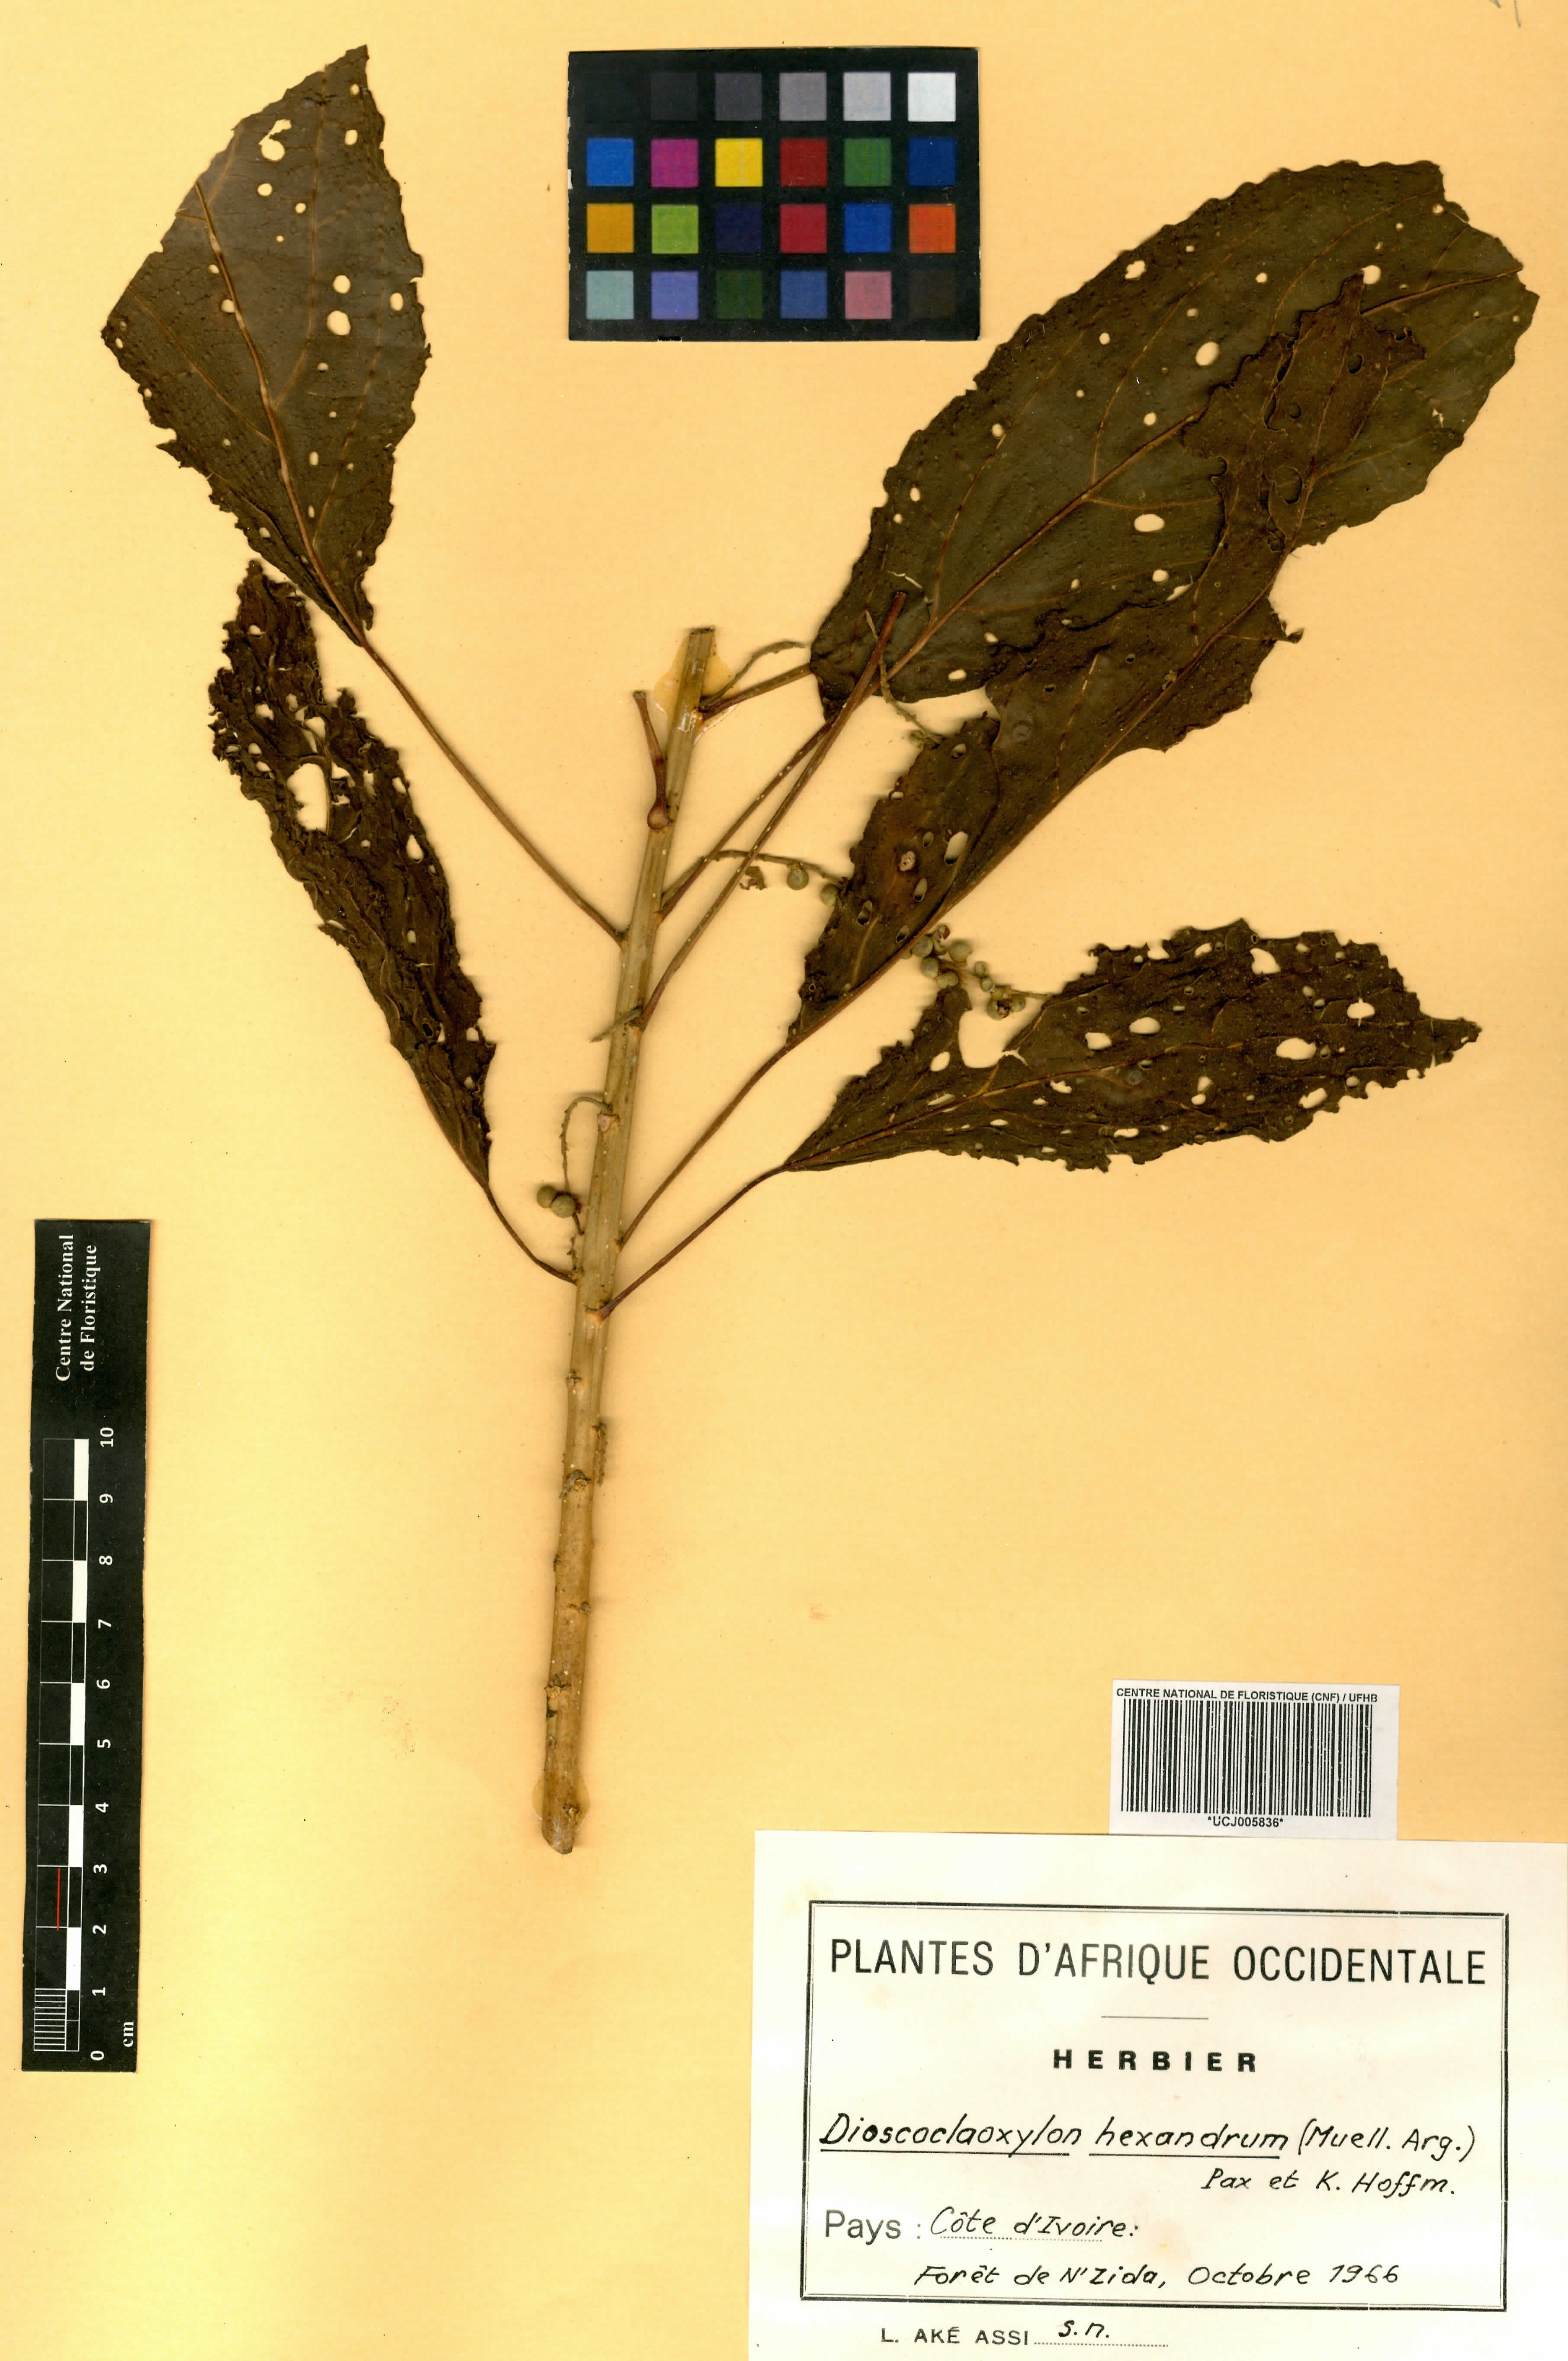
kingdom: Plantae
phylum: Tracheophyta
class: Magnoliopsida
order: Malpighiales
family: Euphorbiaceae
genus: Discoclaoxylon
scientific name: Discoclaoxylon hexandrum
